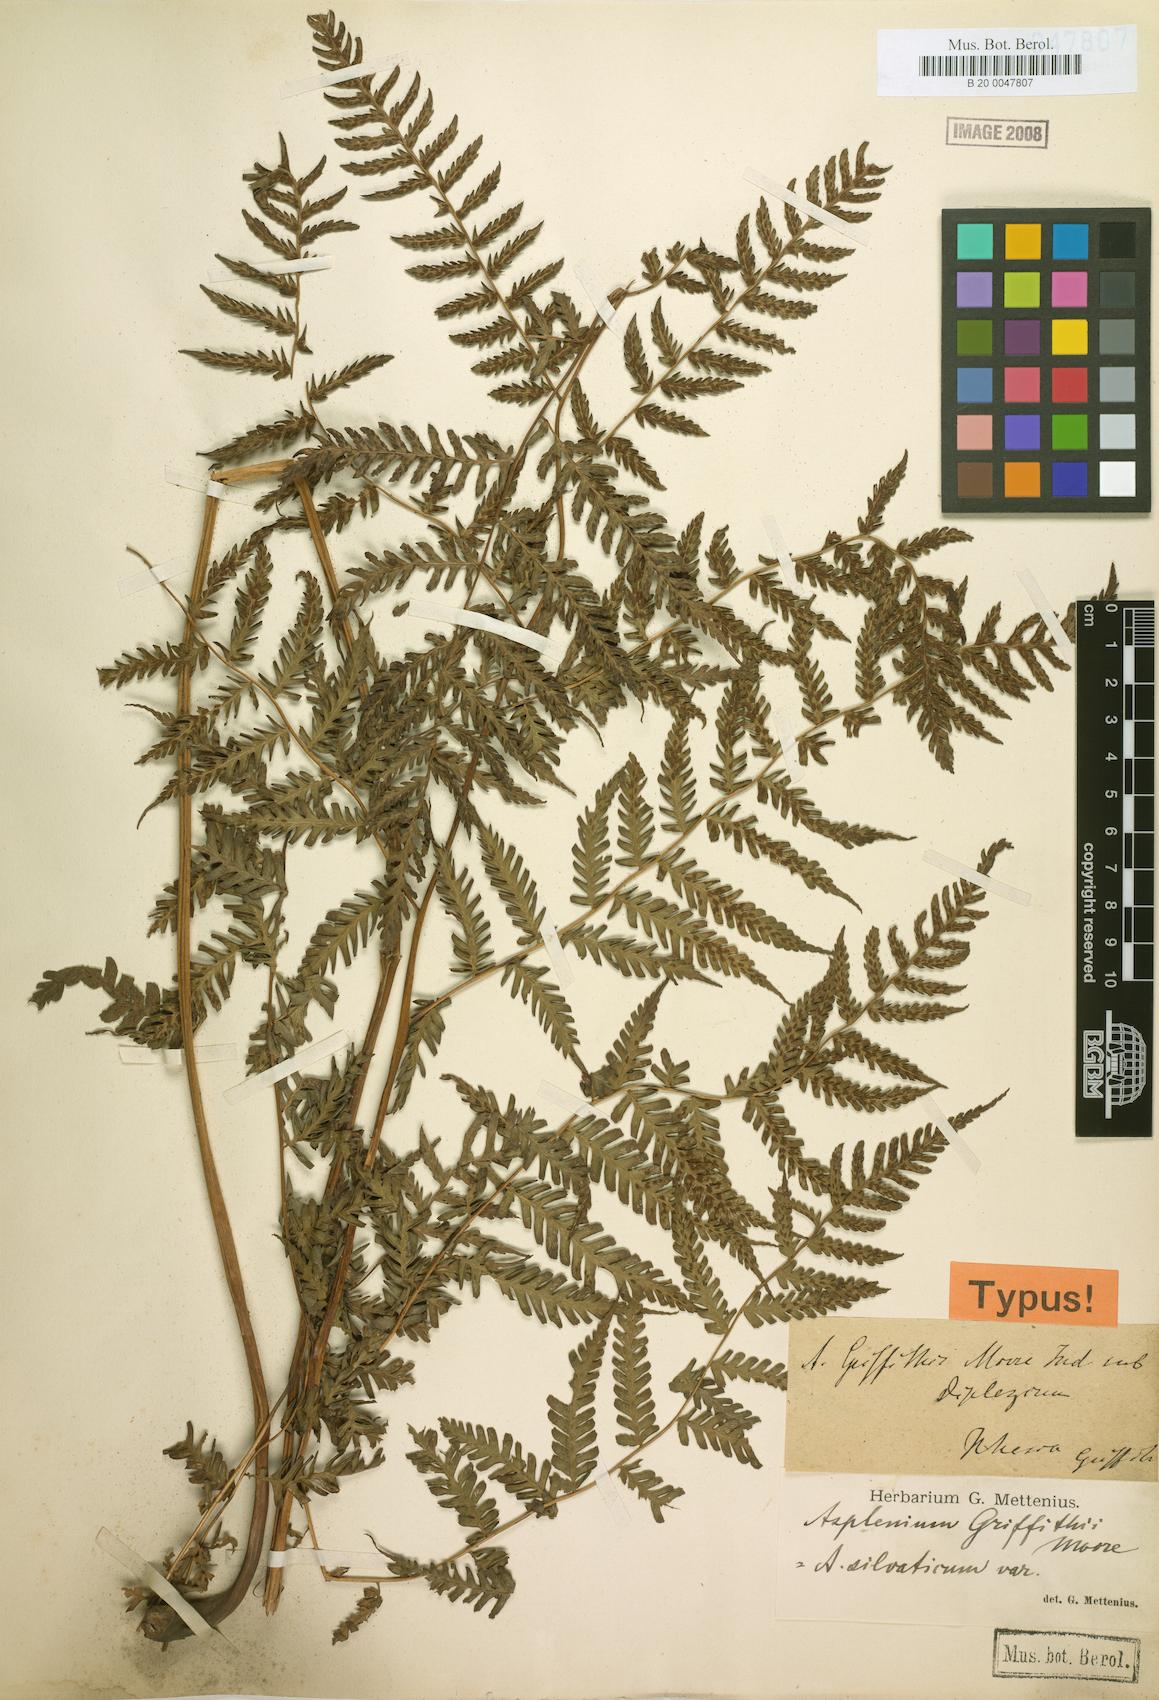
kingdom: Plantae
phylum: Tracheophyta
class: Polypodiopsida
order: Polypodiales
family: Athyriaceae
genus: Diplazium
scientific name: Diplazium griffithii
